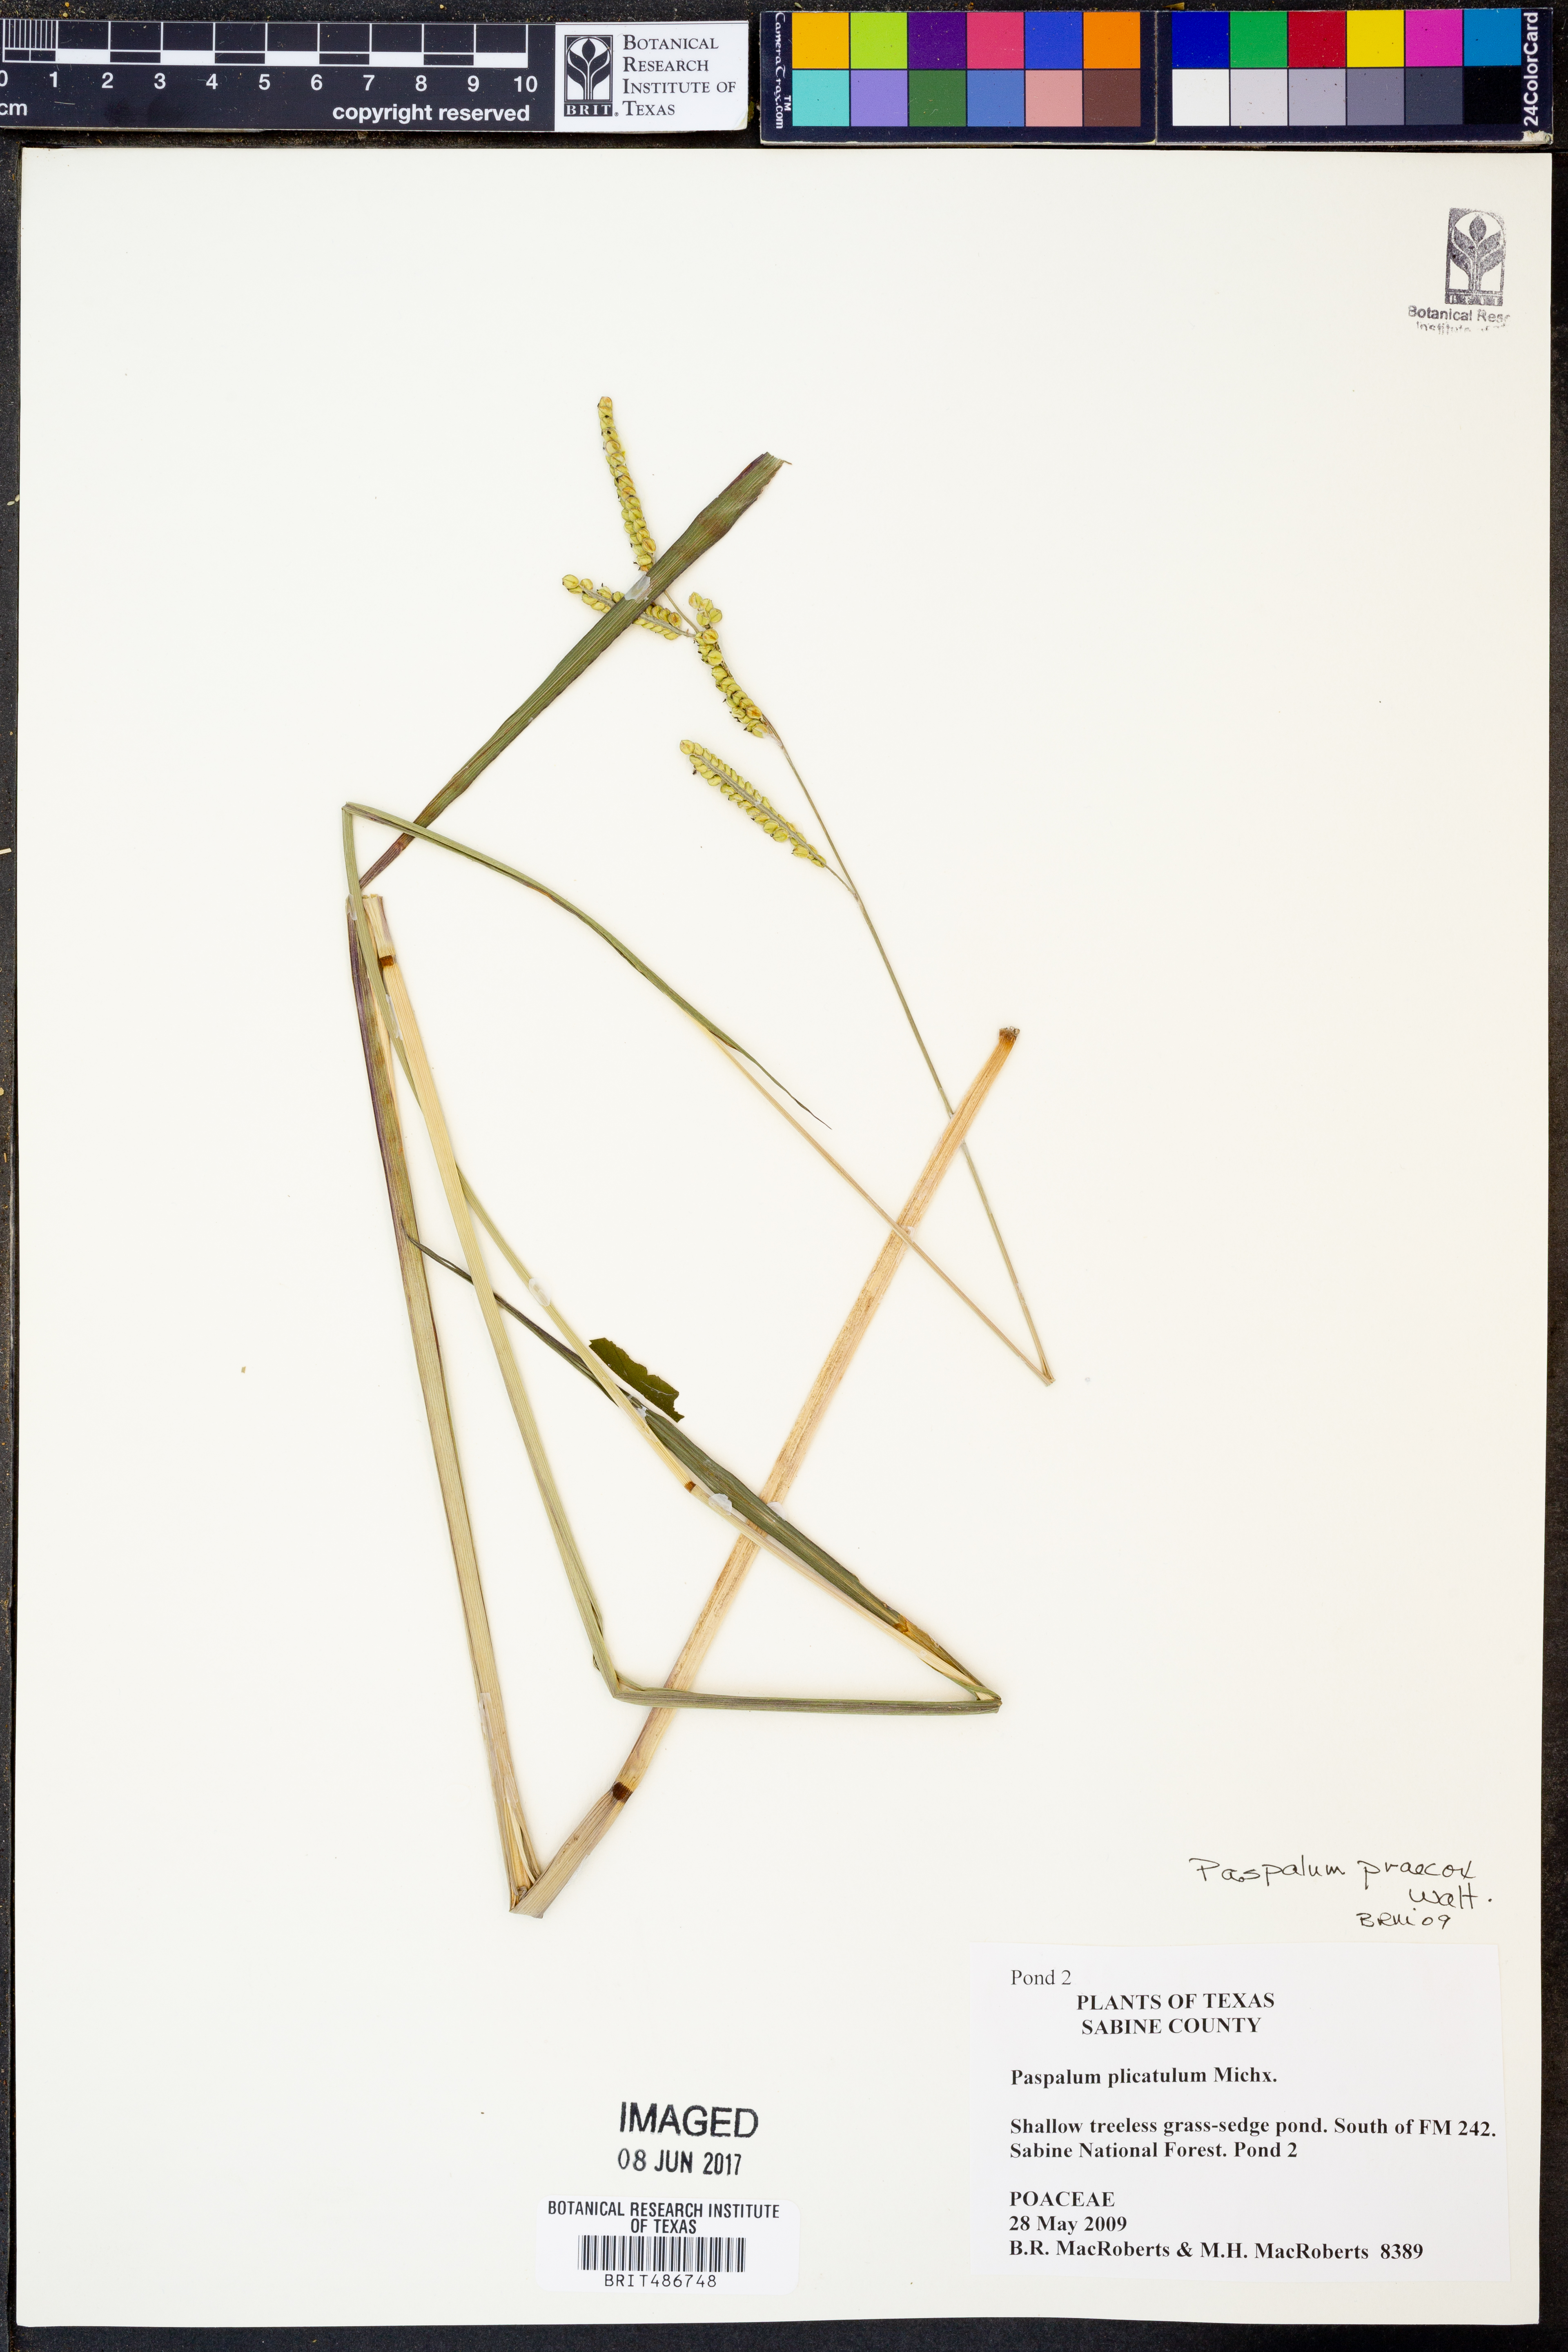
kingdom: Plantae
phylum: Tracheophyta
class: Liliopsida
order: Poales
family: Poaceae
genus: Paspalum
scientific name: Paspalum plicatulum
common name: Top paspalum
